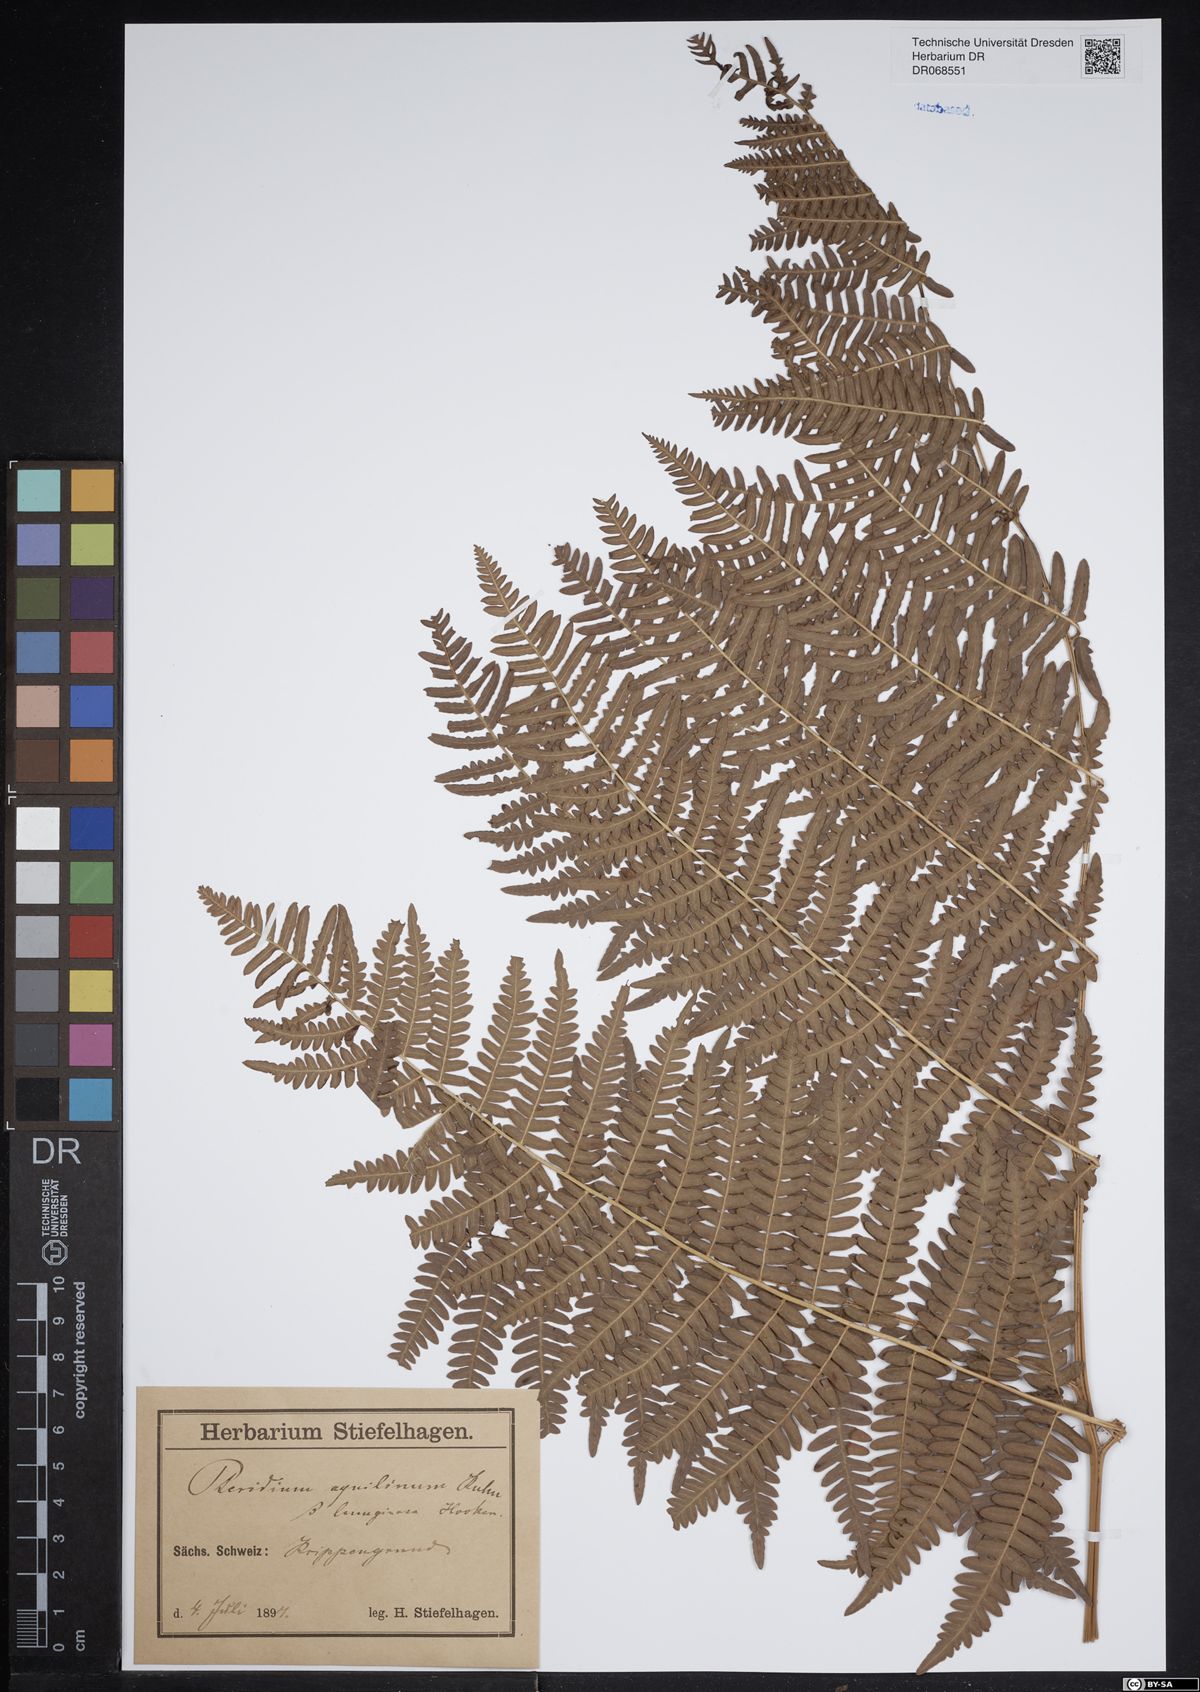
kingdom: Plantae
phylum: Tracheophyta
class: Polypodiopsida
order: Polypodiales
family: Dennstaedtiaceae
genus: Pteridium
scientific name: Pteridium aquilinum
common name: Bracken
